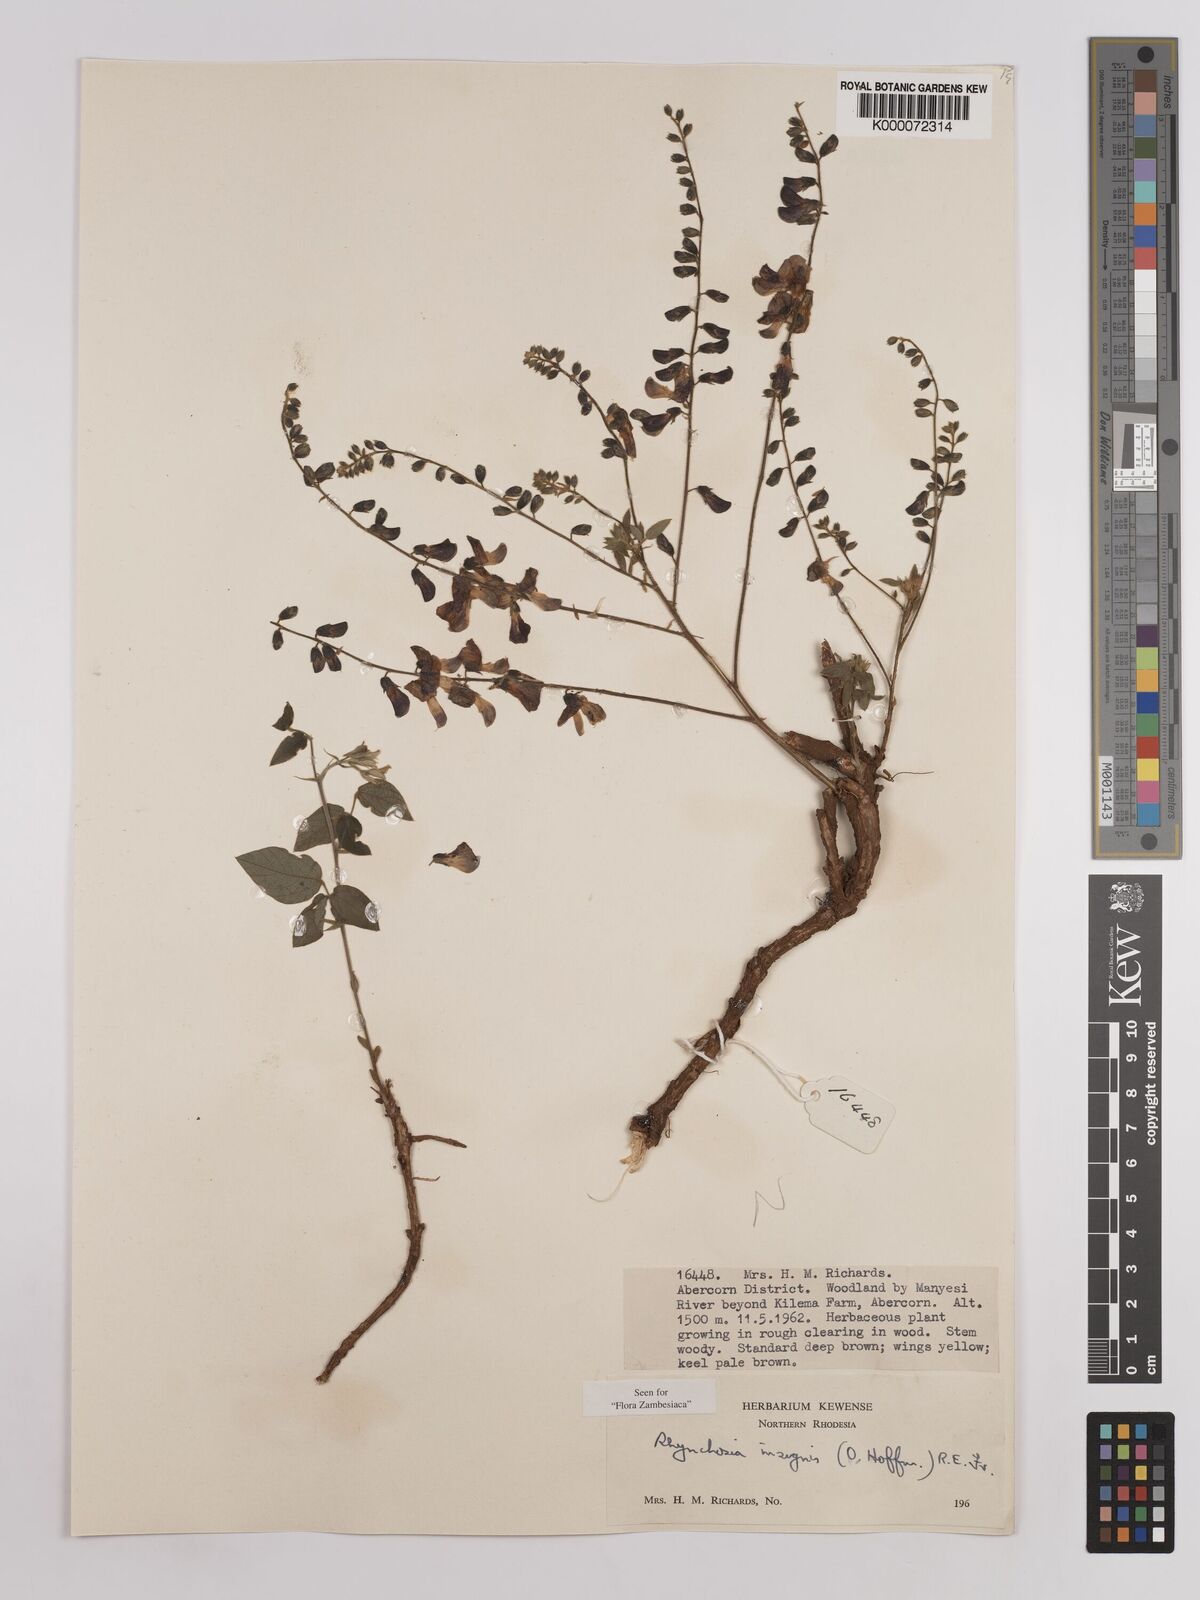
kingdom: Plantae
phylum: Tracheophyta
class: Magnoliopsida
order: Fabales
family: Fabaceae
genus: Rhynchosia
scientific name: Rhynchosia insignis
